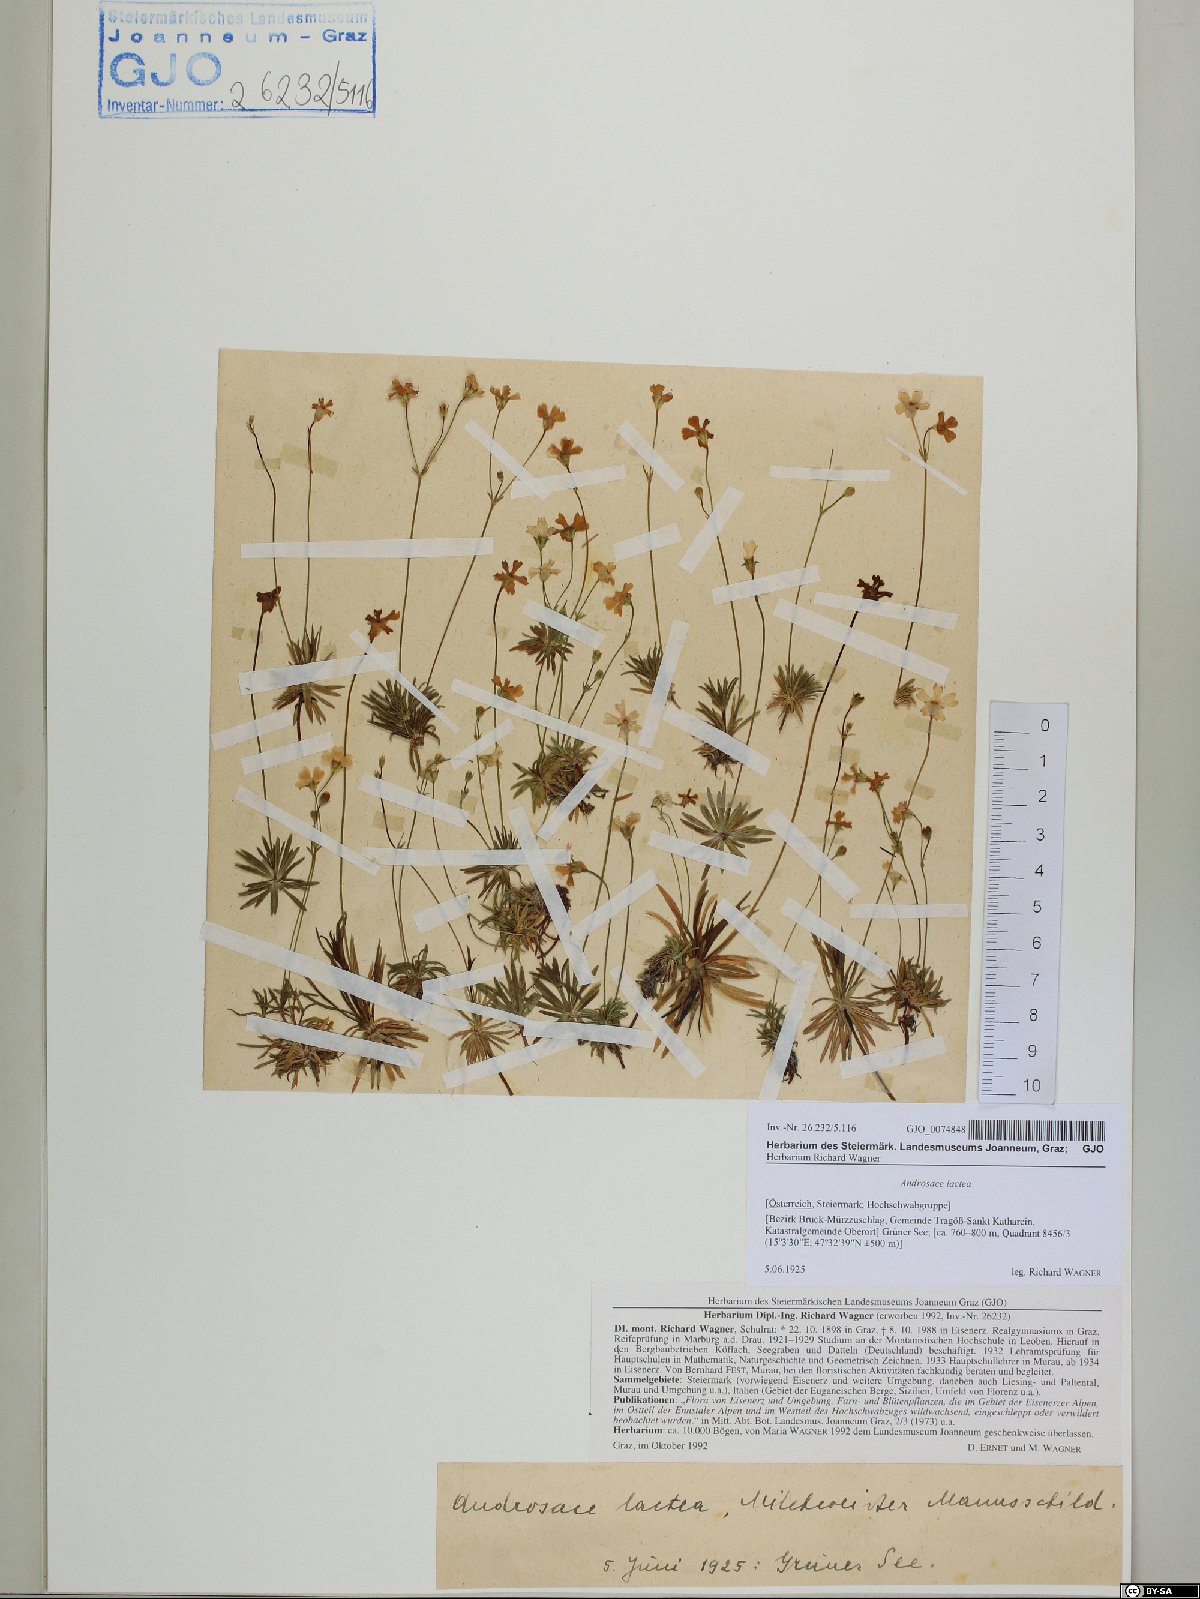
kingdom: Plantae
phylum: Tracheophyta
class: Magnoliopsida
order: Ericales
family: Primulaceae
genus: Androsace
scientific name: Androsace lactea
